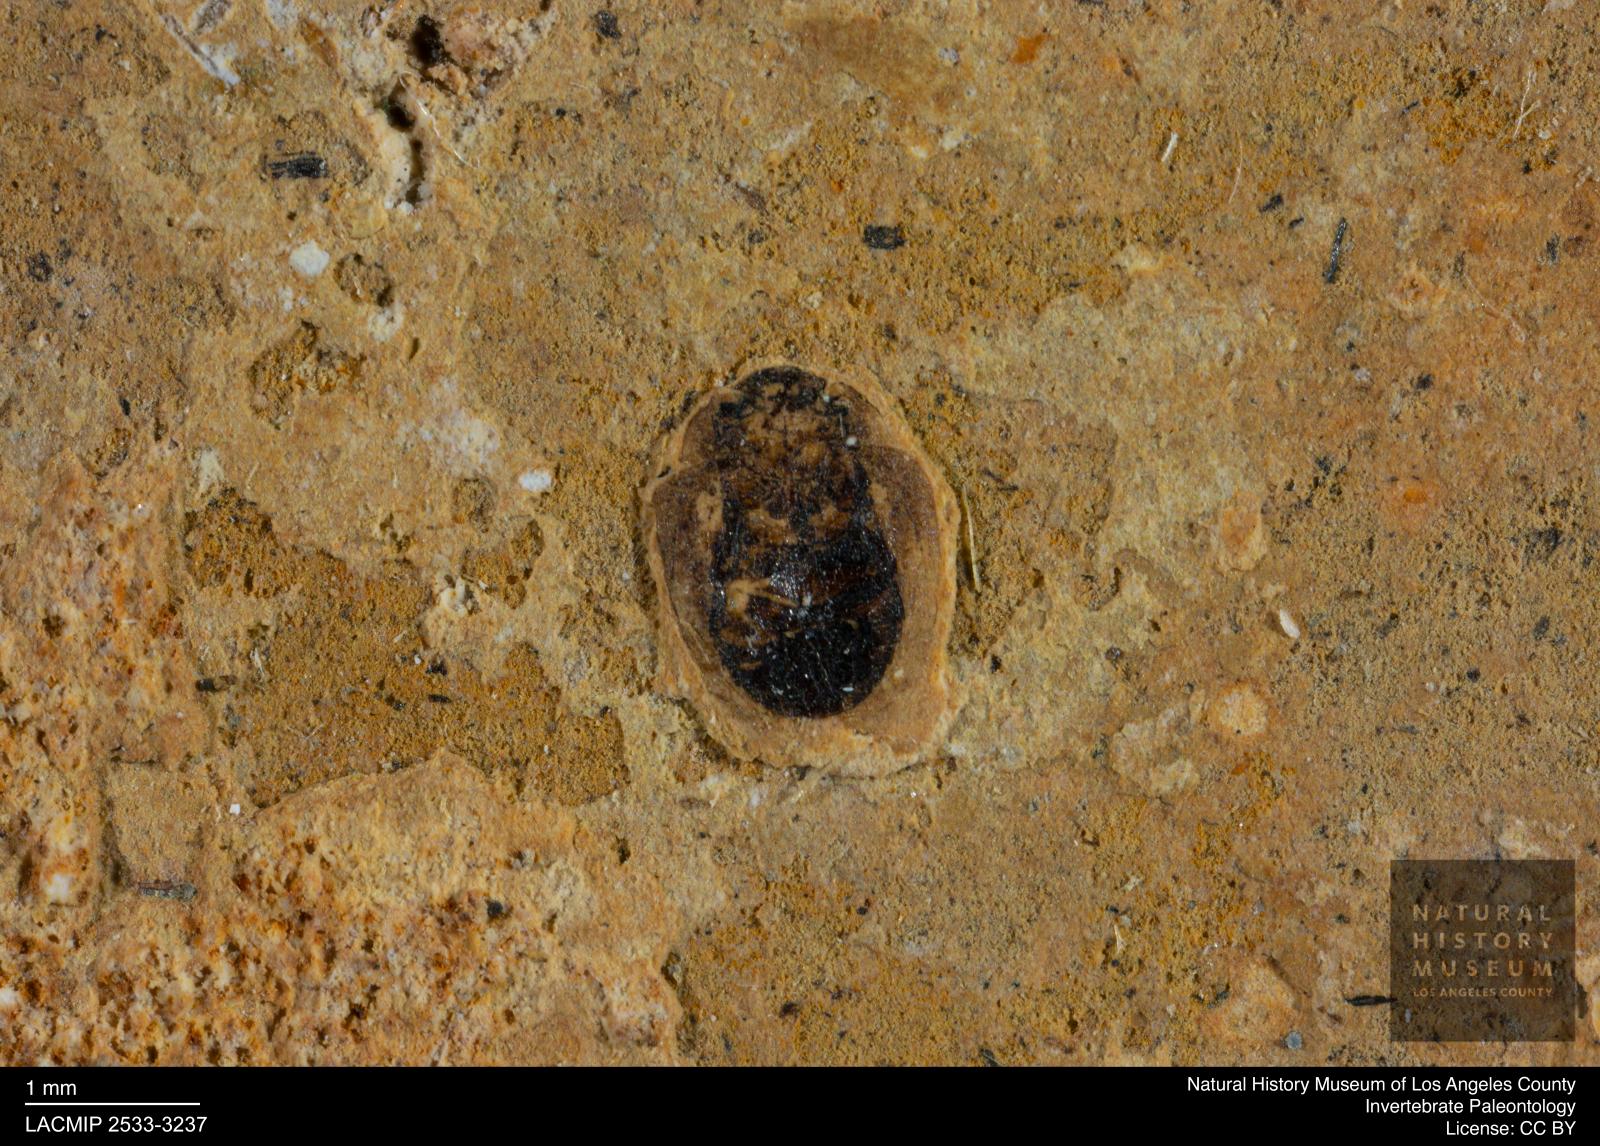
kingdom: Animalia
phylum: Arthropoda
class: Insecta
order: Coleoptera
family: Hydrophilidae
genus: Paracymus
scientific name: Paracymus excitatus
